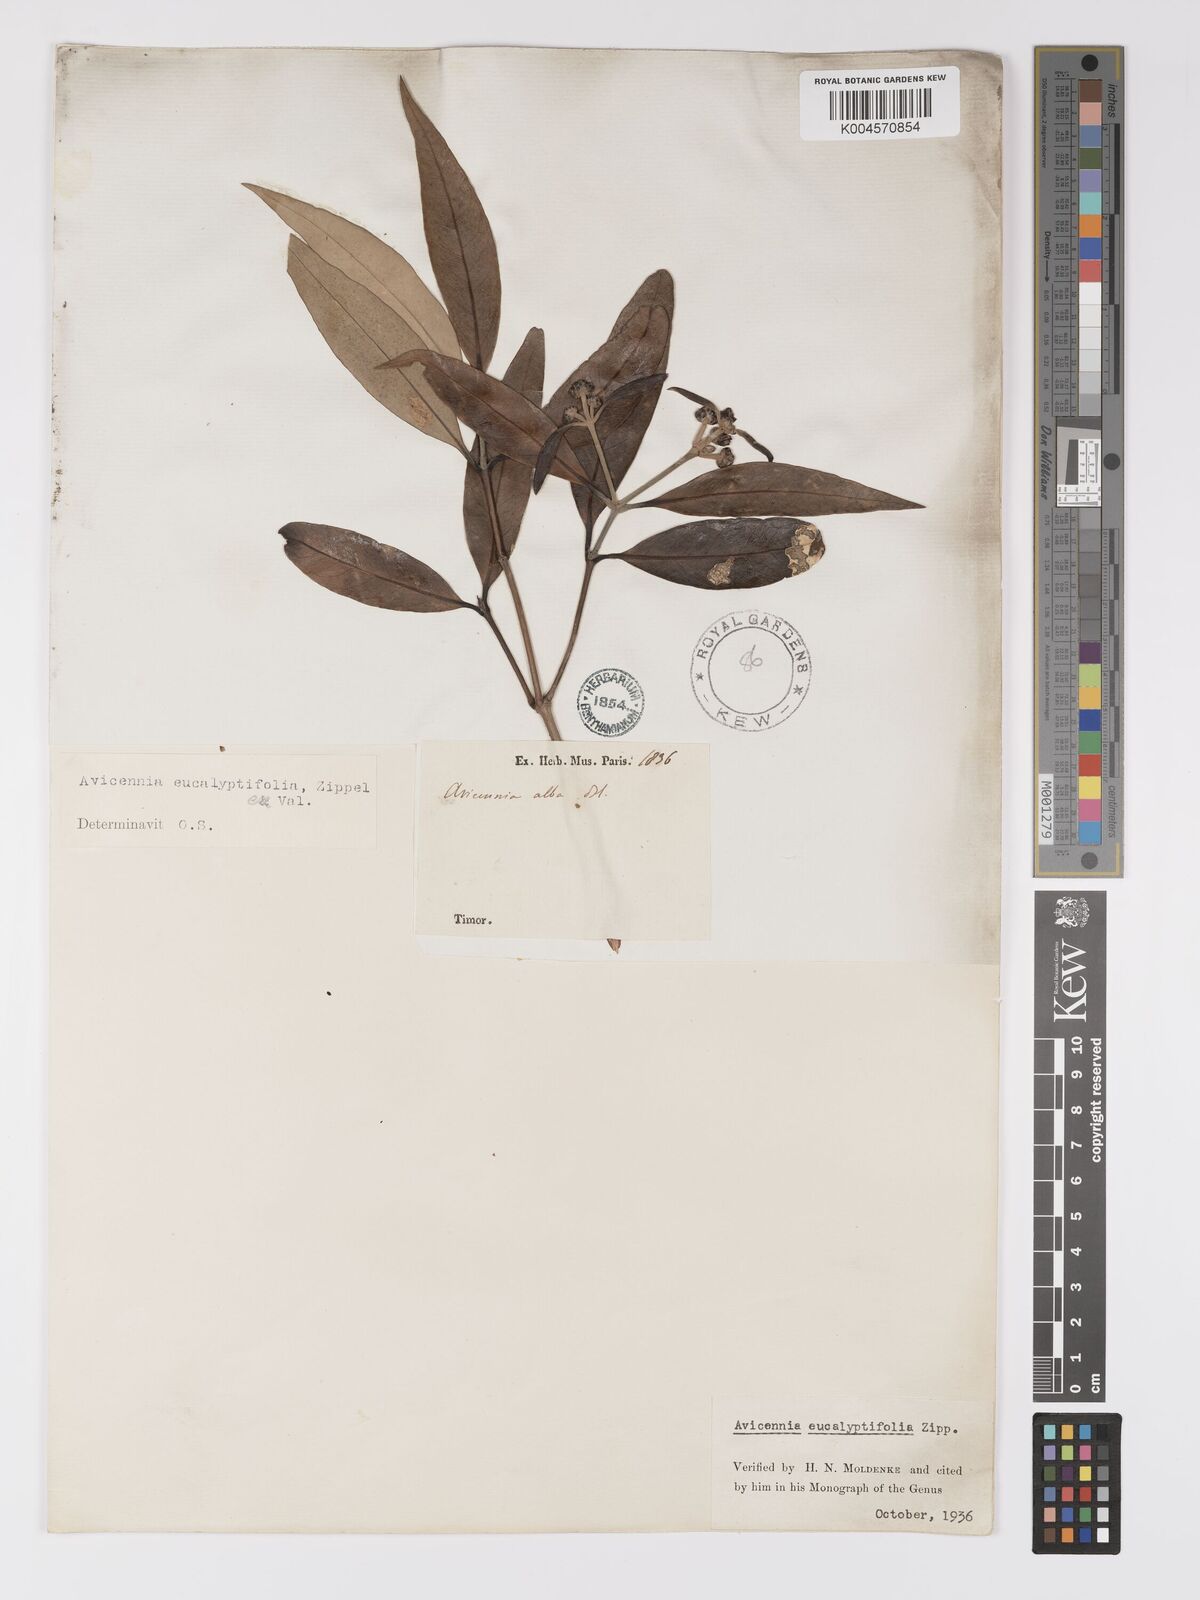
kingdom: Plantae
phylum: Tracheophyta
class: Magnoliopsida
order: Lamiales
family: Acanthaceae
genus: Avicennia
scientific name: Avicennia marina
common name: Gray mangrove
